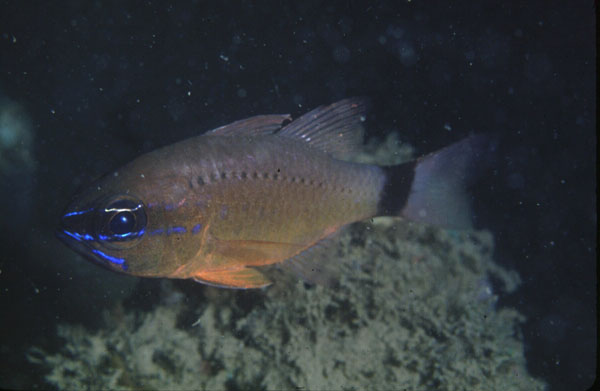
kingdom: Animalia
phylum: Chordata
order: Perciformes
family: Apogonidae
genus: Ostorhinchus
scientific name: Ostorhinchus aureus
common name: Ring-tailed cardinalfish
